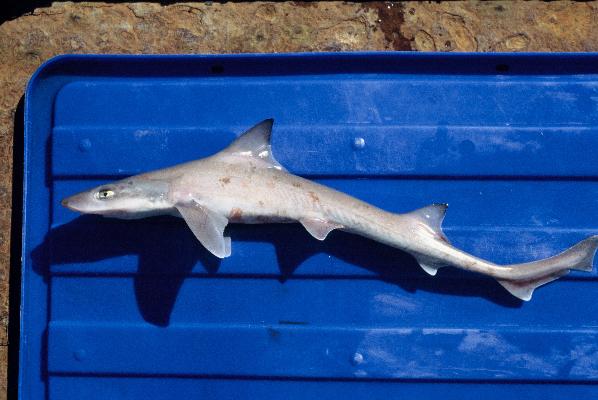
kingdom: Animalia
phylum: Chordata
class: Elasmobranchii
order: Carcharhiniformes
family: Triakidae
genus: Mustelus
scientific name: Mustelus palumbes
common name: Whitespotted smooth-hound
